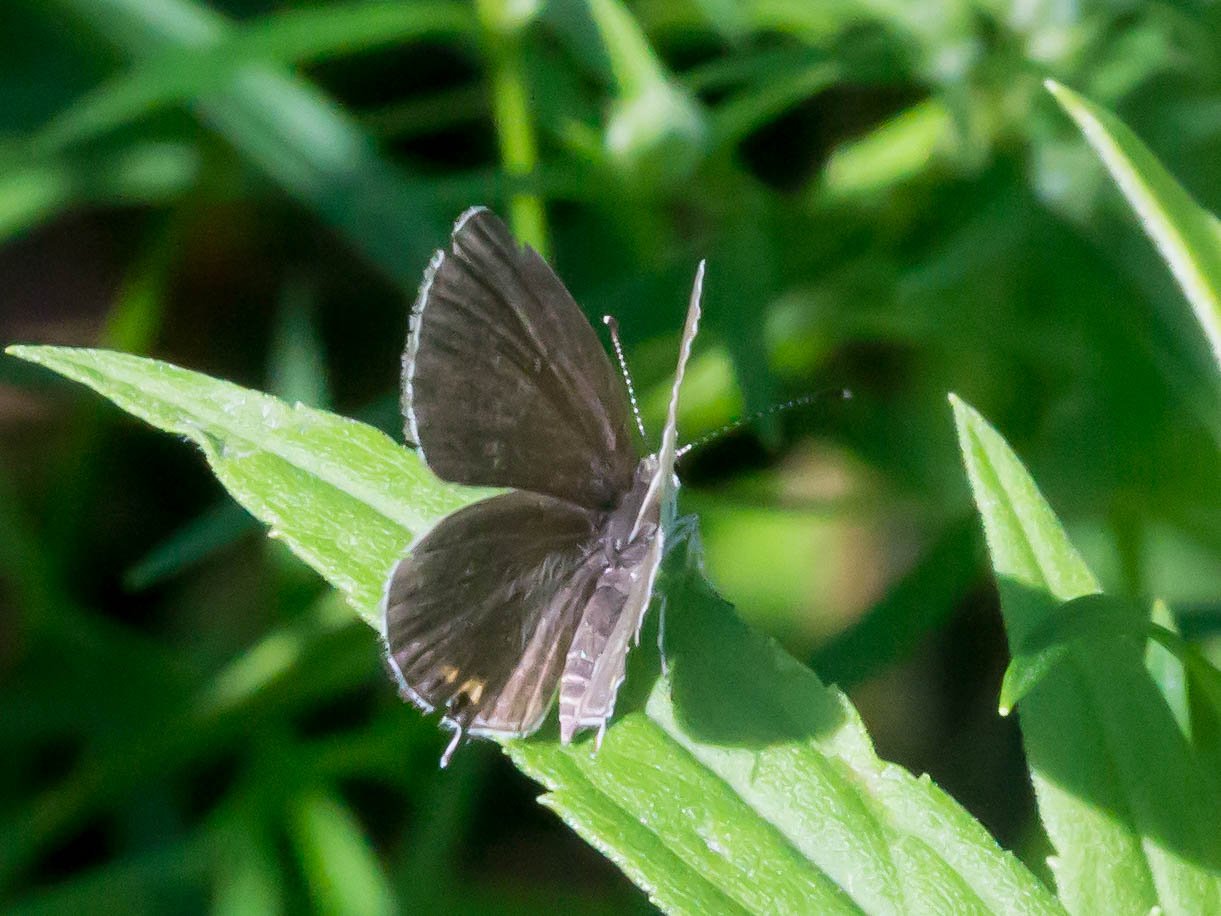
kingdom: Animalia
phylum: Arthropoda
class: Insecta
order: Lepidoptera
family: Lycaenidae
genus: Elkalyce
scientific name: Elkalyce comyntas
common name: Eastern Tailed-Blue
